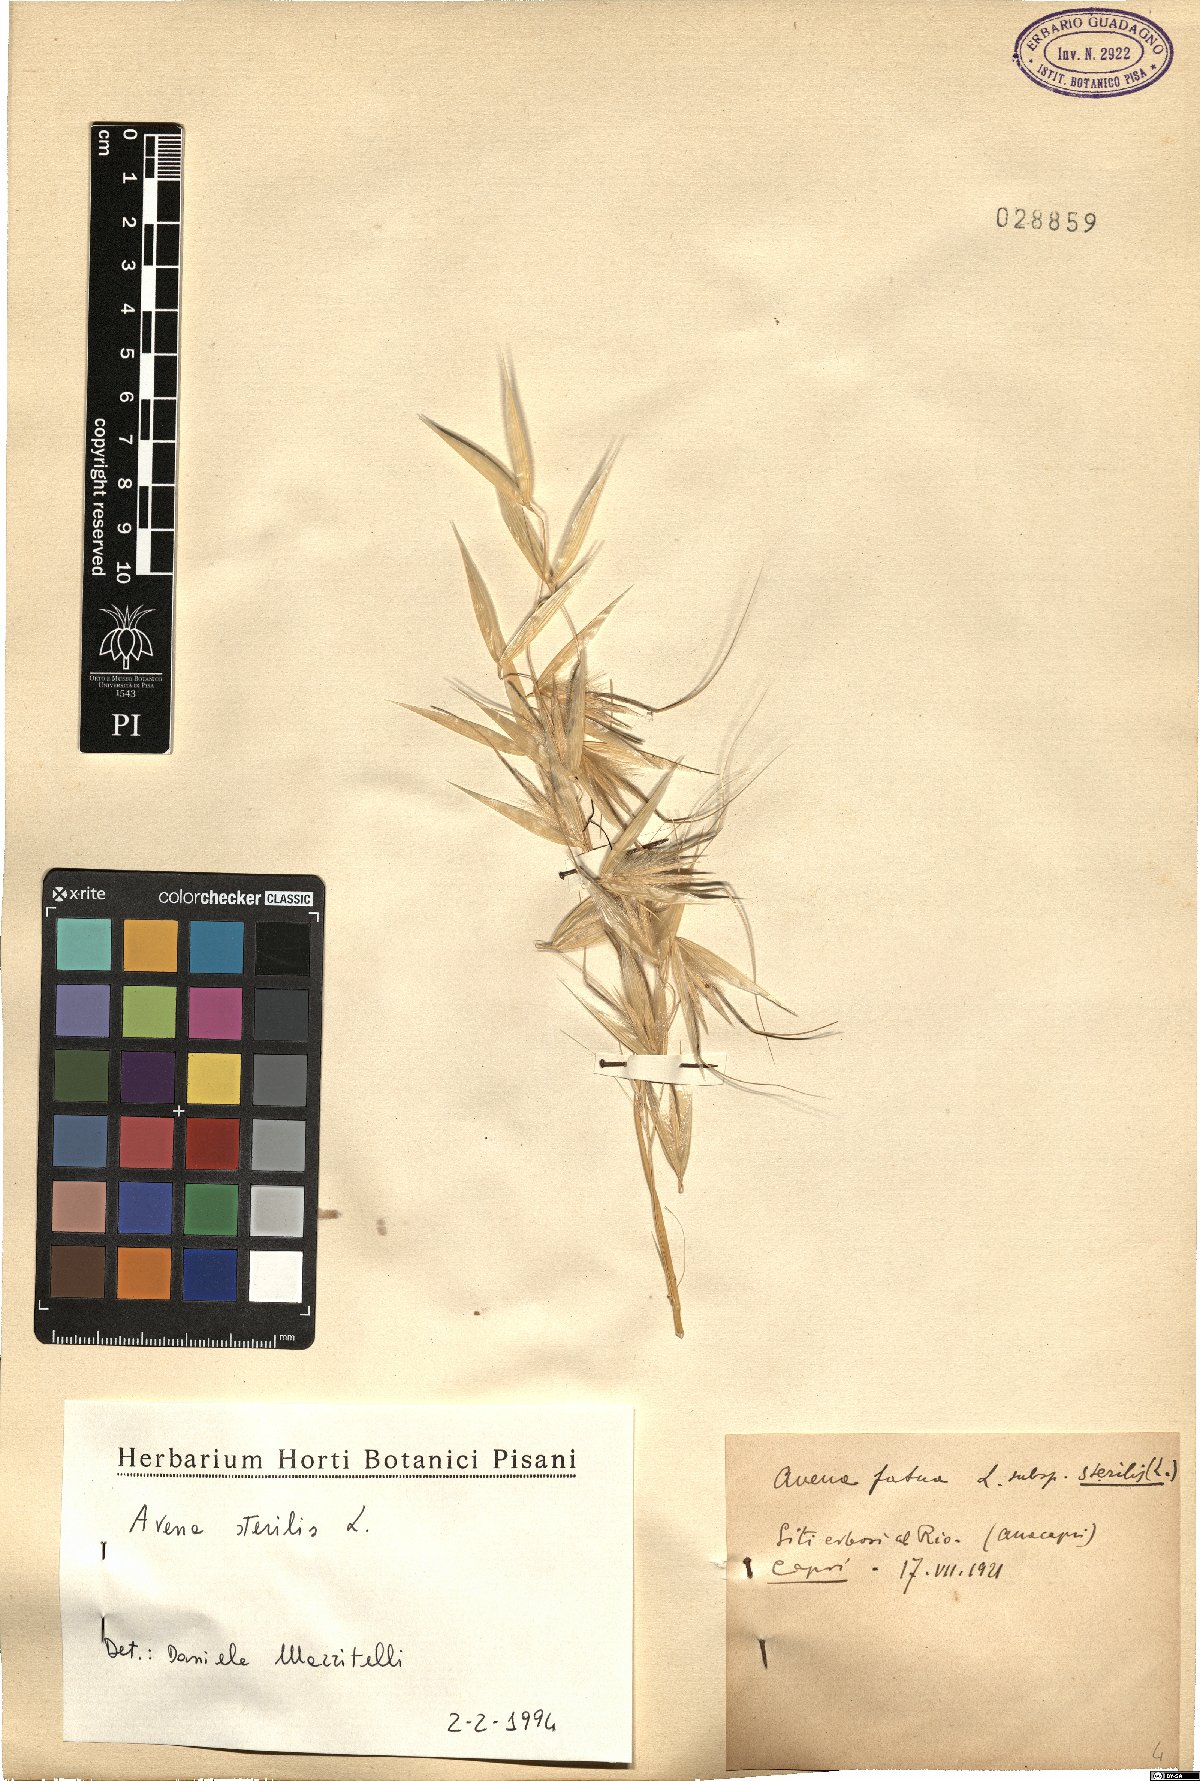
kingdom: Plantae
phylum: Tracheophyta
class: Liliopsida
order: Poales
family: Poaceae
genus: Avena
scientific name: Avena sterilis
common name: Animated oat
